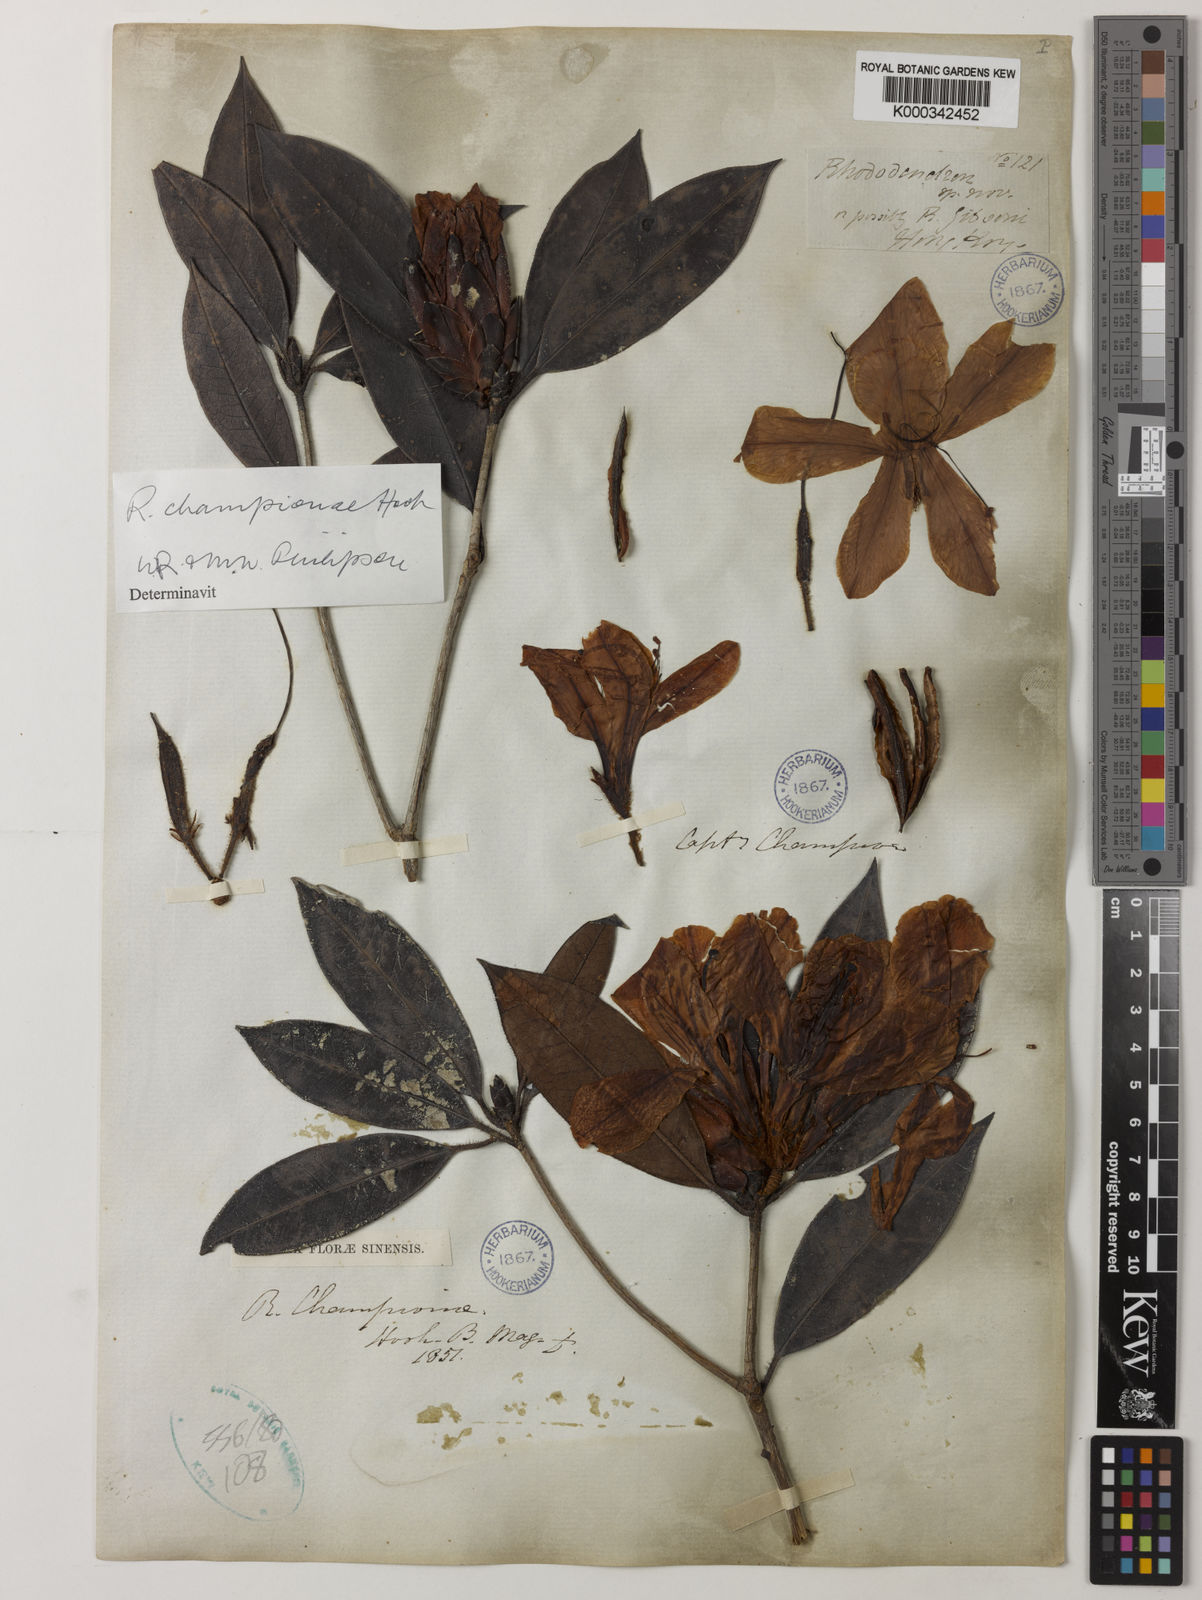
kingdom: Plantae
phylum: Tracheophyta
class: Magnoliopsida
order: Ericales
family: Ericaceae
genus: Rhododendron
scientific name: Rhododendron championiae
